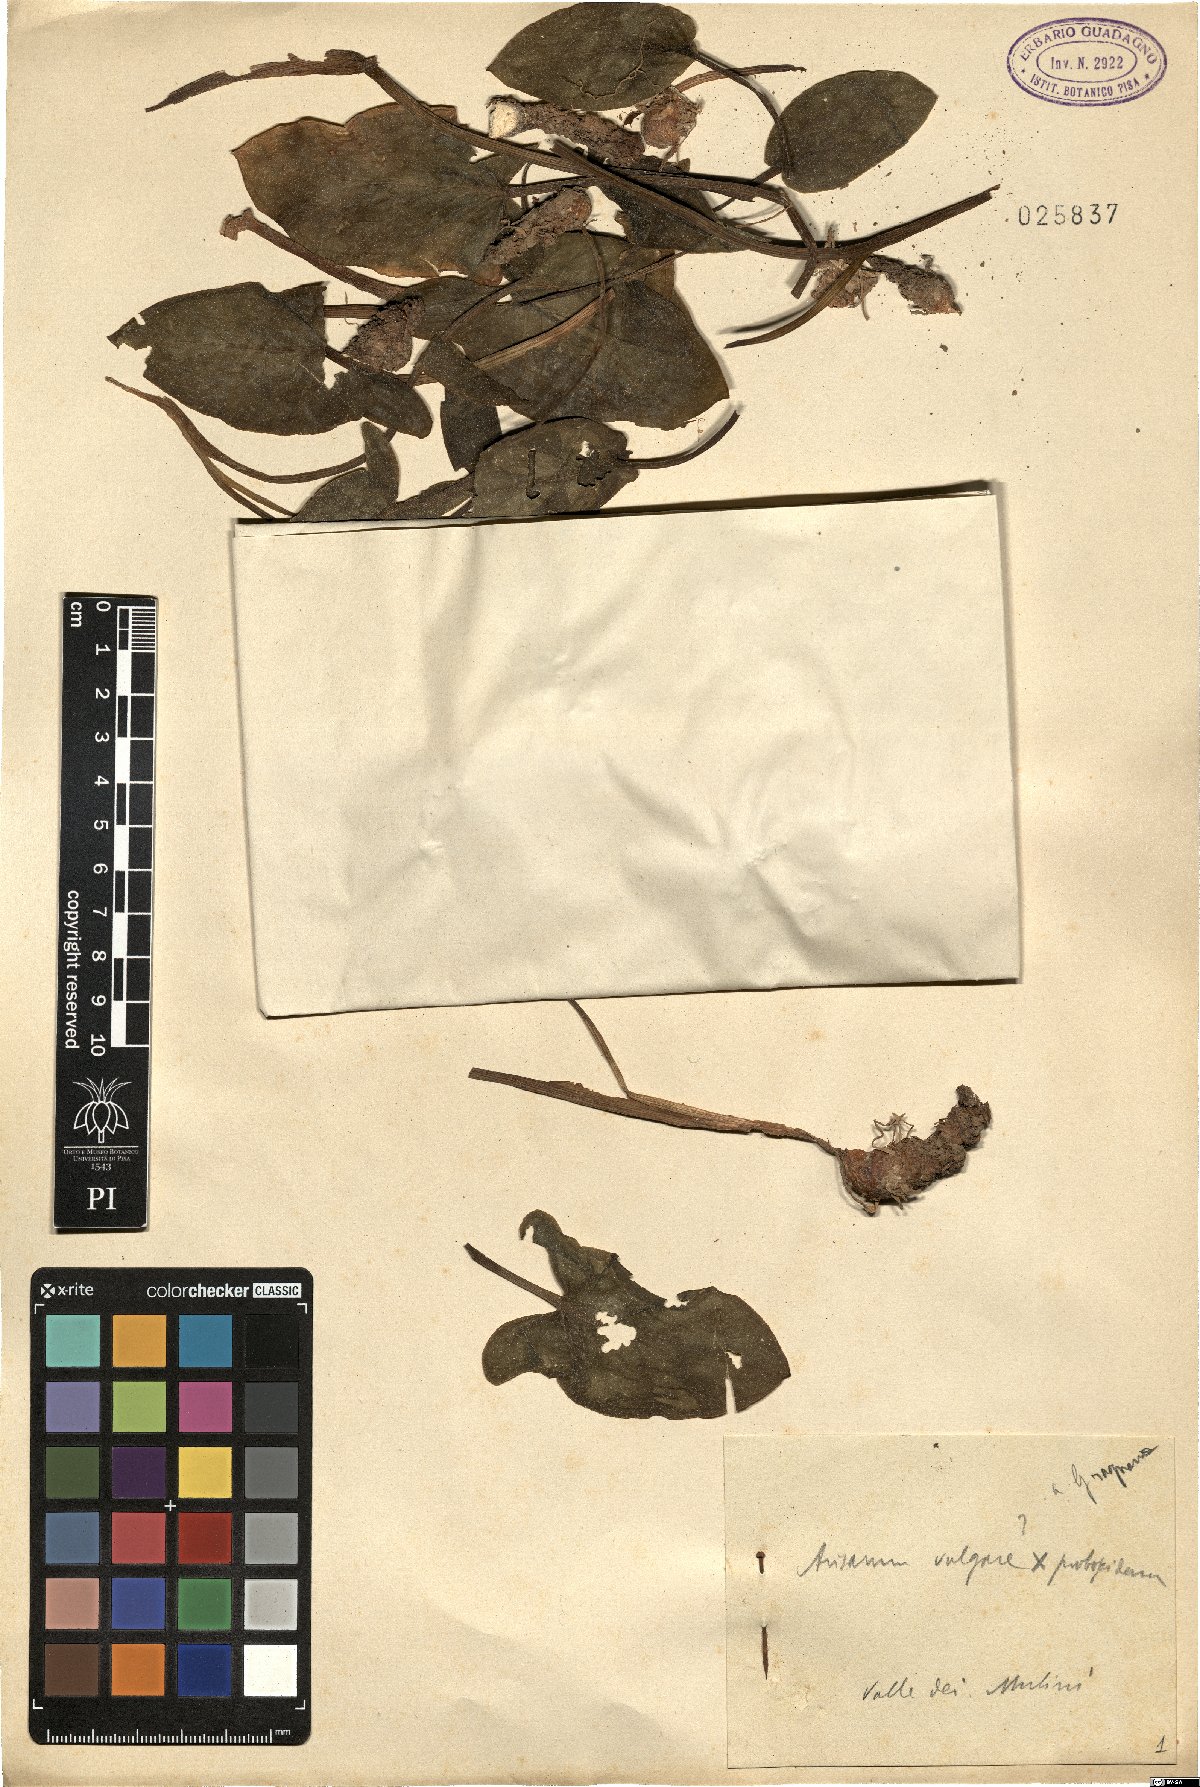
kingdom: Plantae
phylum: Tracheophyta
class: Liliopsida
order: Alismatales
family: Araceae
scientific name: Araceae
